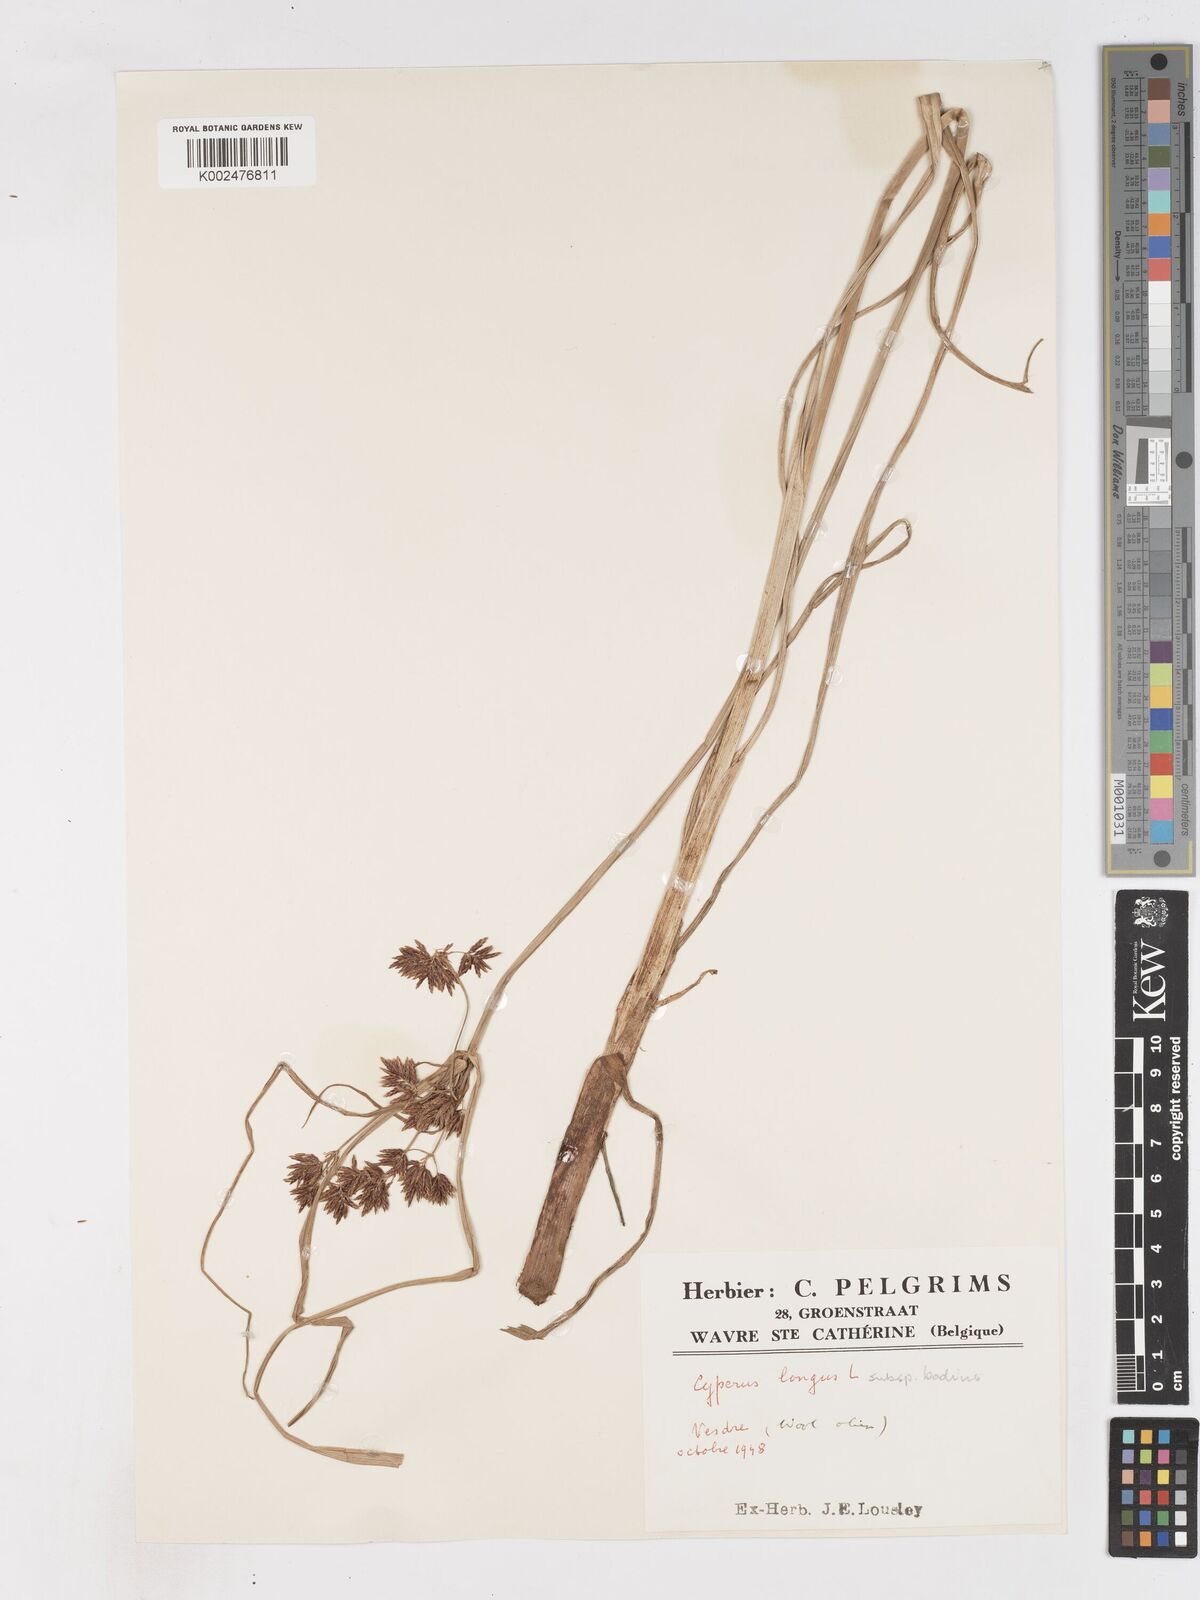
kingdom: Plantae
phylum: Tracheophyta
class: Liliopsida
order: Poales
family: Cyperaceae
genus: Cyperus
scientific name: Cyperus longus
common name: Galingale
